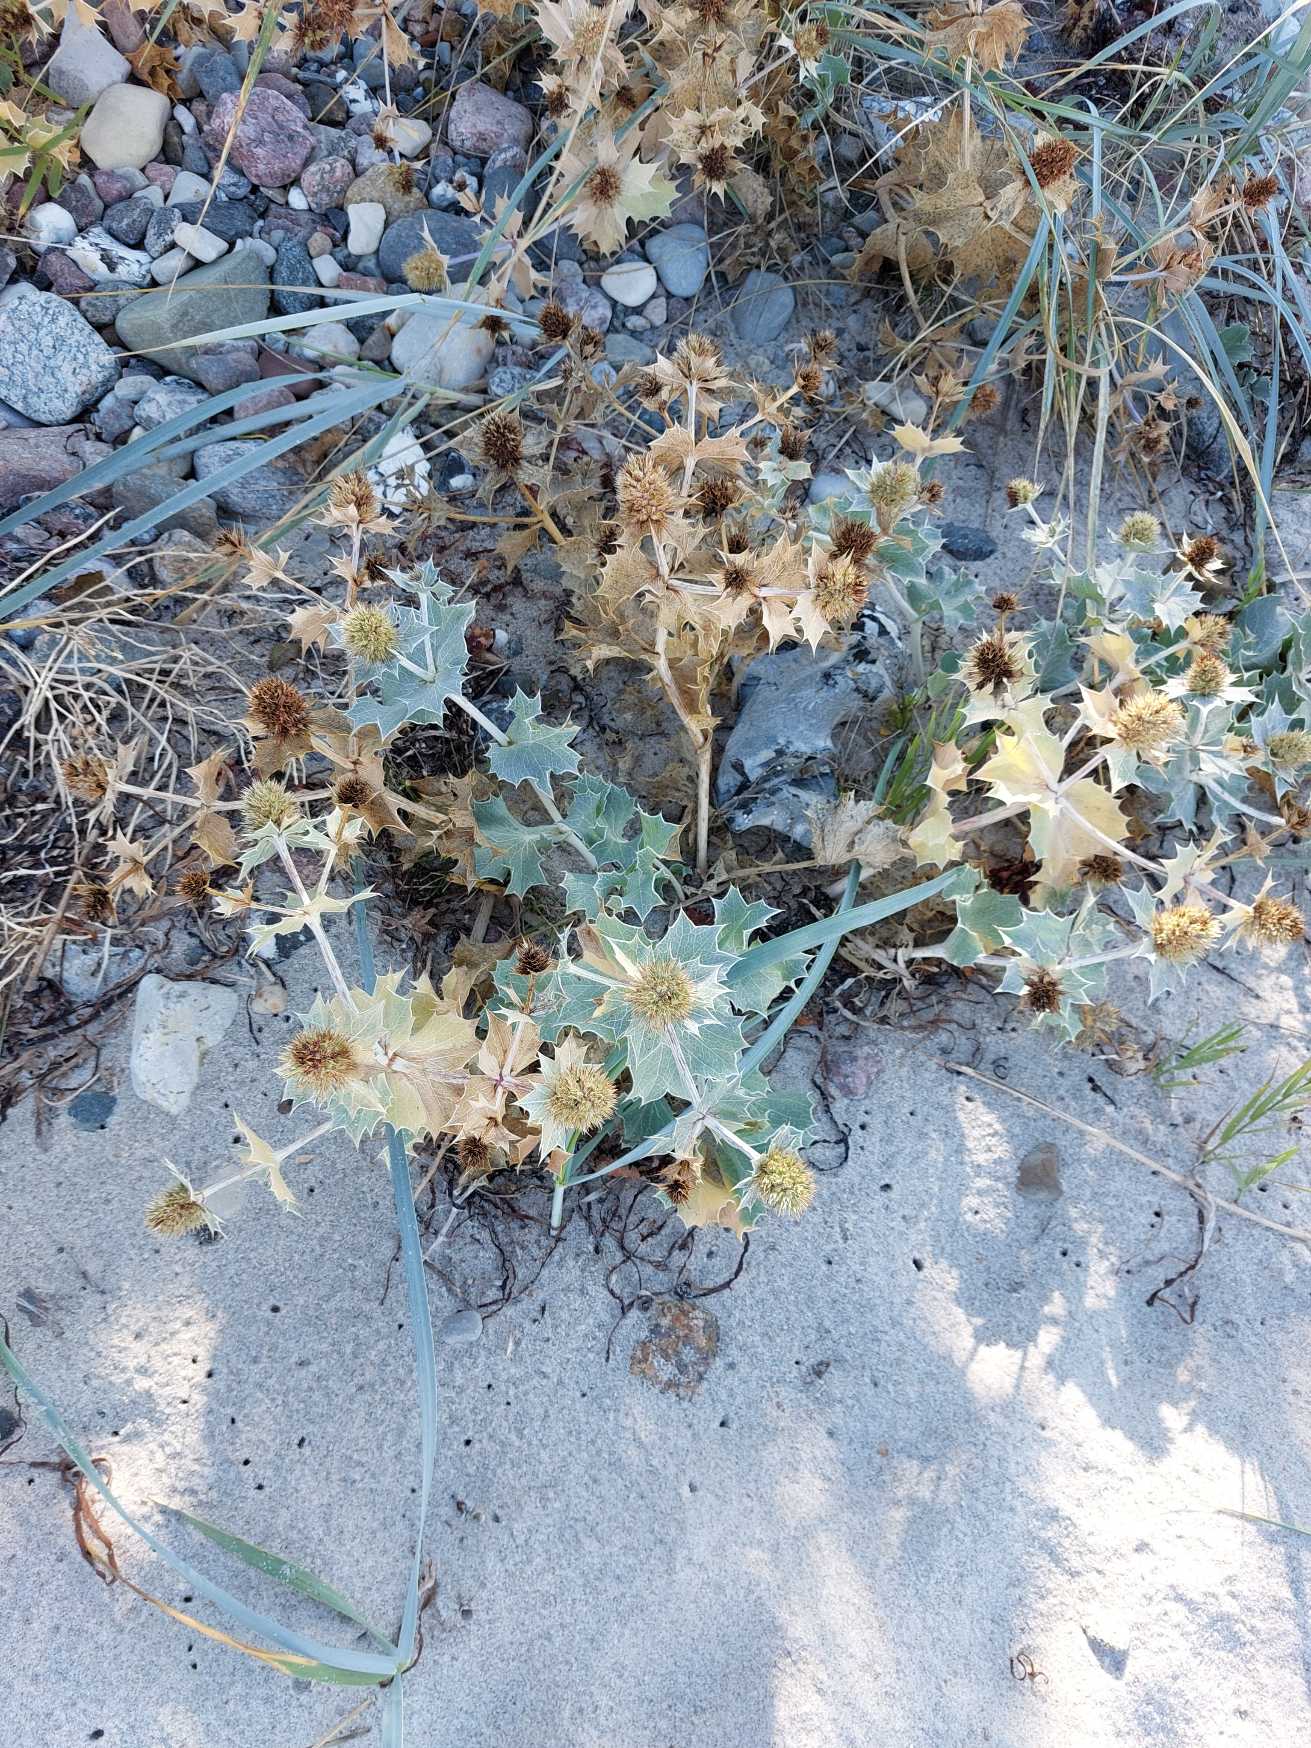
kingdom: Plantae
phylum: Tracheophyta
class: Magnoliopsida
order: Apiales
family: Apiaceae
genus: Eryngium
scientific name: Eryngium maritimum
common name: Strand-mandstro
